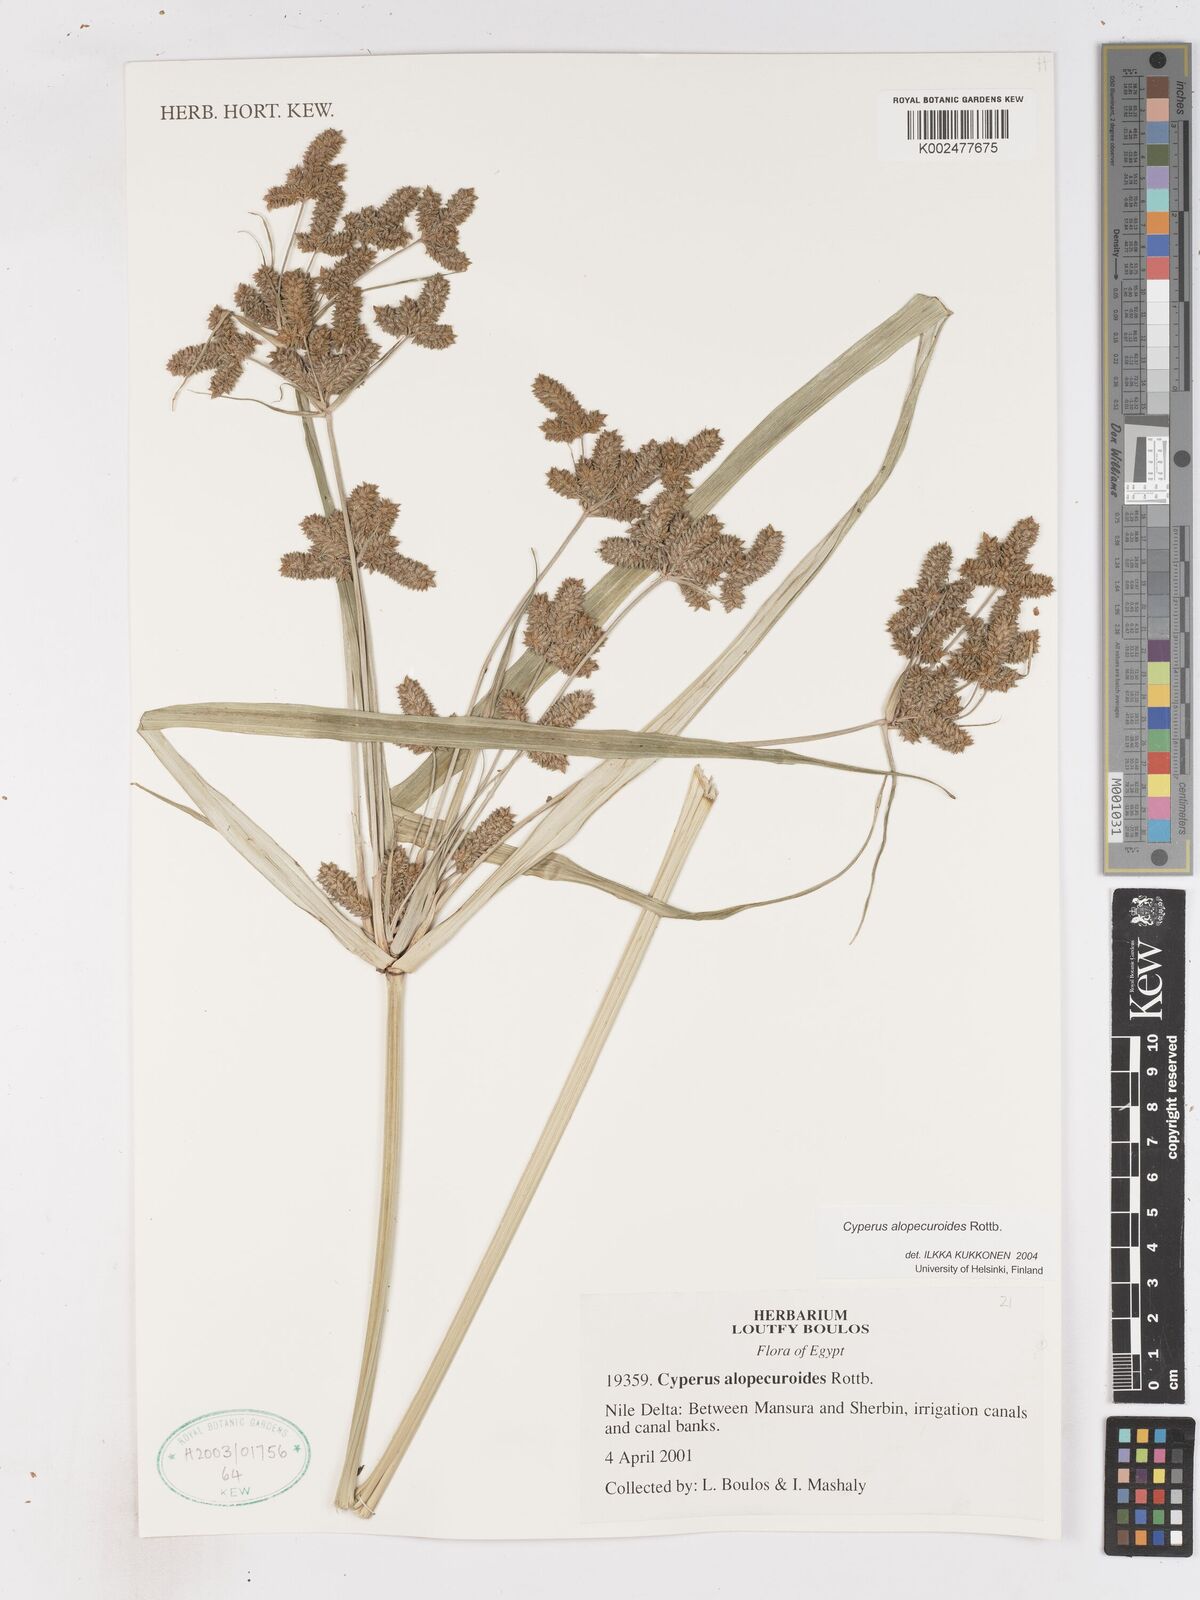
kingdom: Plantae
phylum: Tracheophyta
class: Liliopsida
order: Poales
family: Cyperaceae
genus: Cyperus
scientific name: Cyperus alopecuroides
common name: Foxtail flatsedge
